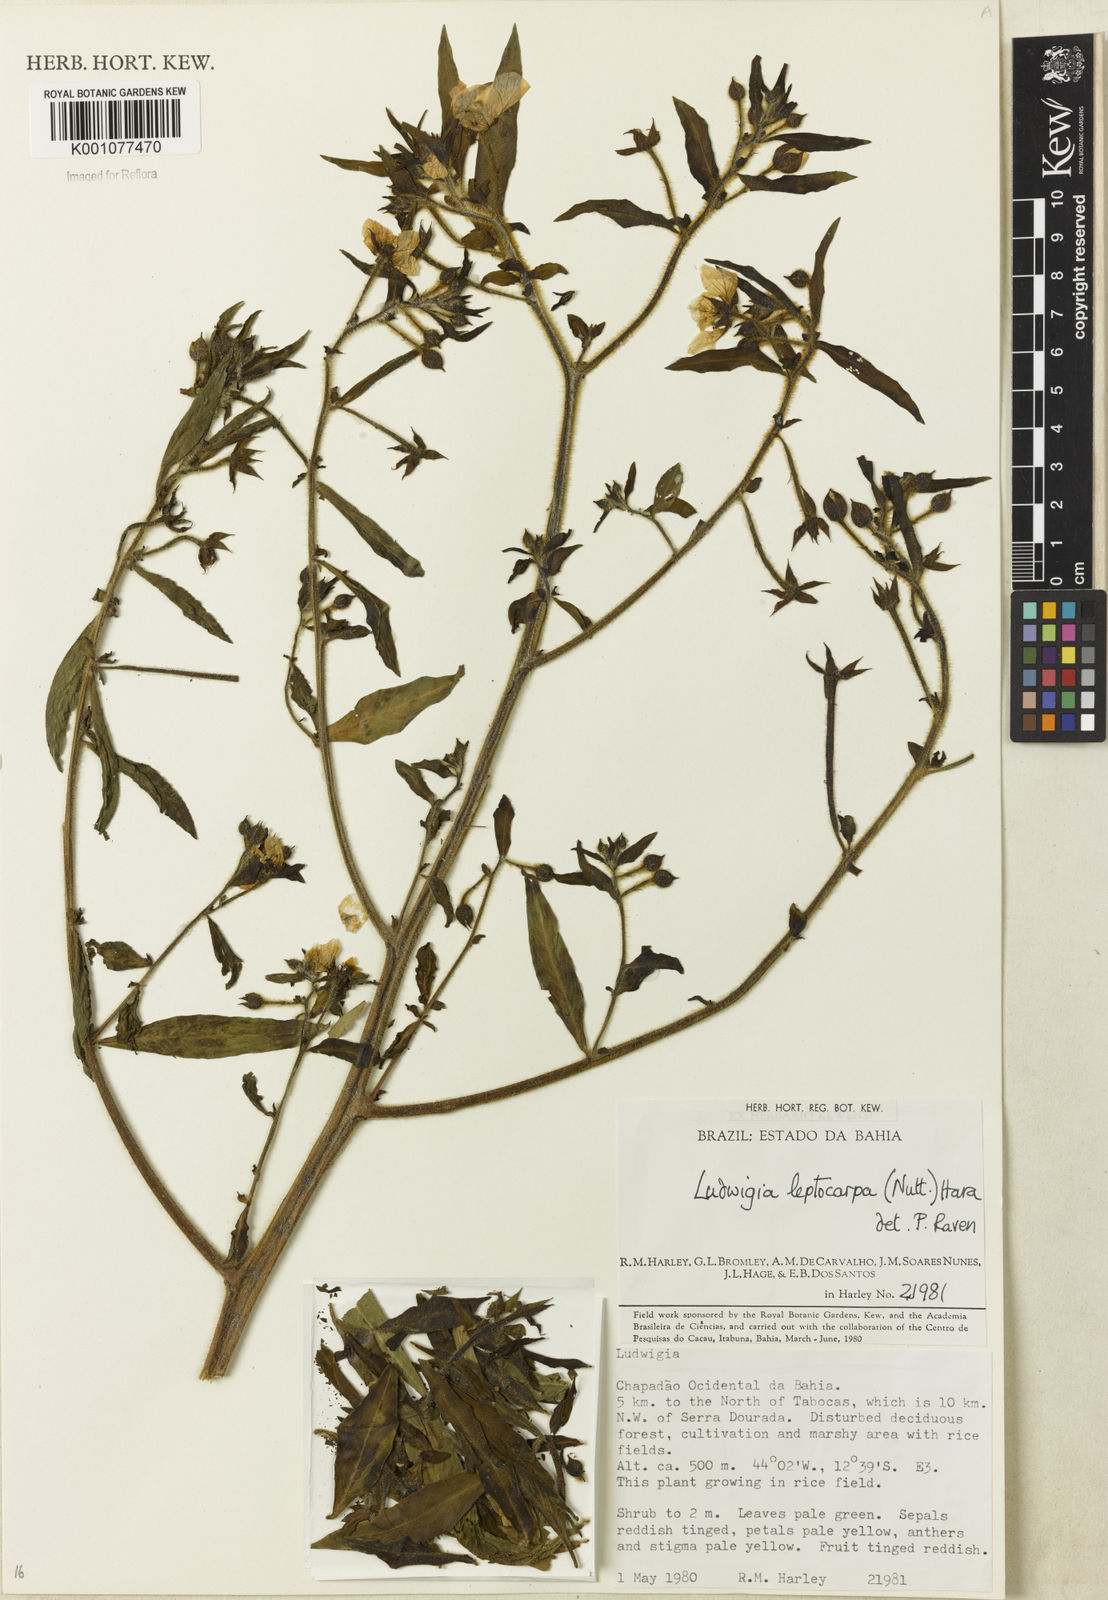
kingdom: Plantae
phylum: Tracheophyta
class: Magnoliopsida
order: Myrtales
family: Onagraceae
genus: Ludwigia
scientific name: Ludwigia leptocarpa
